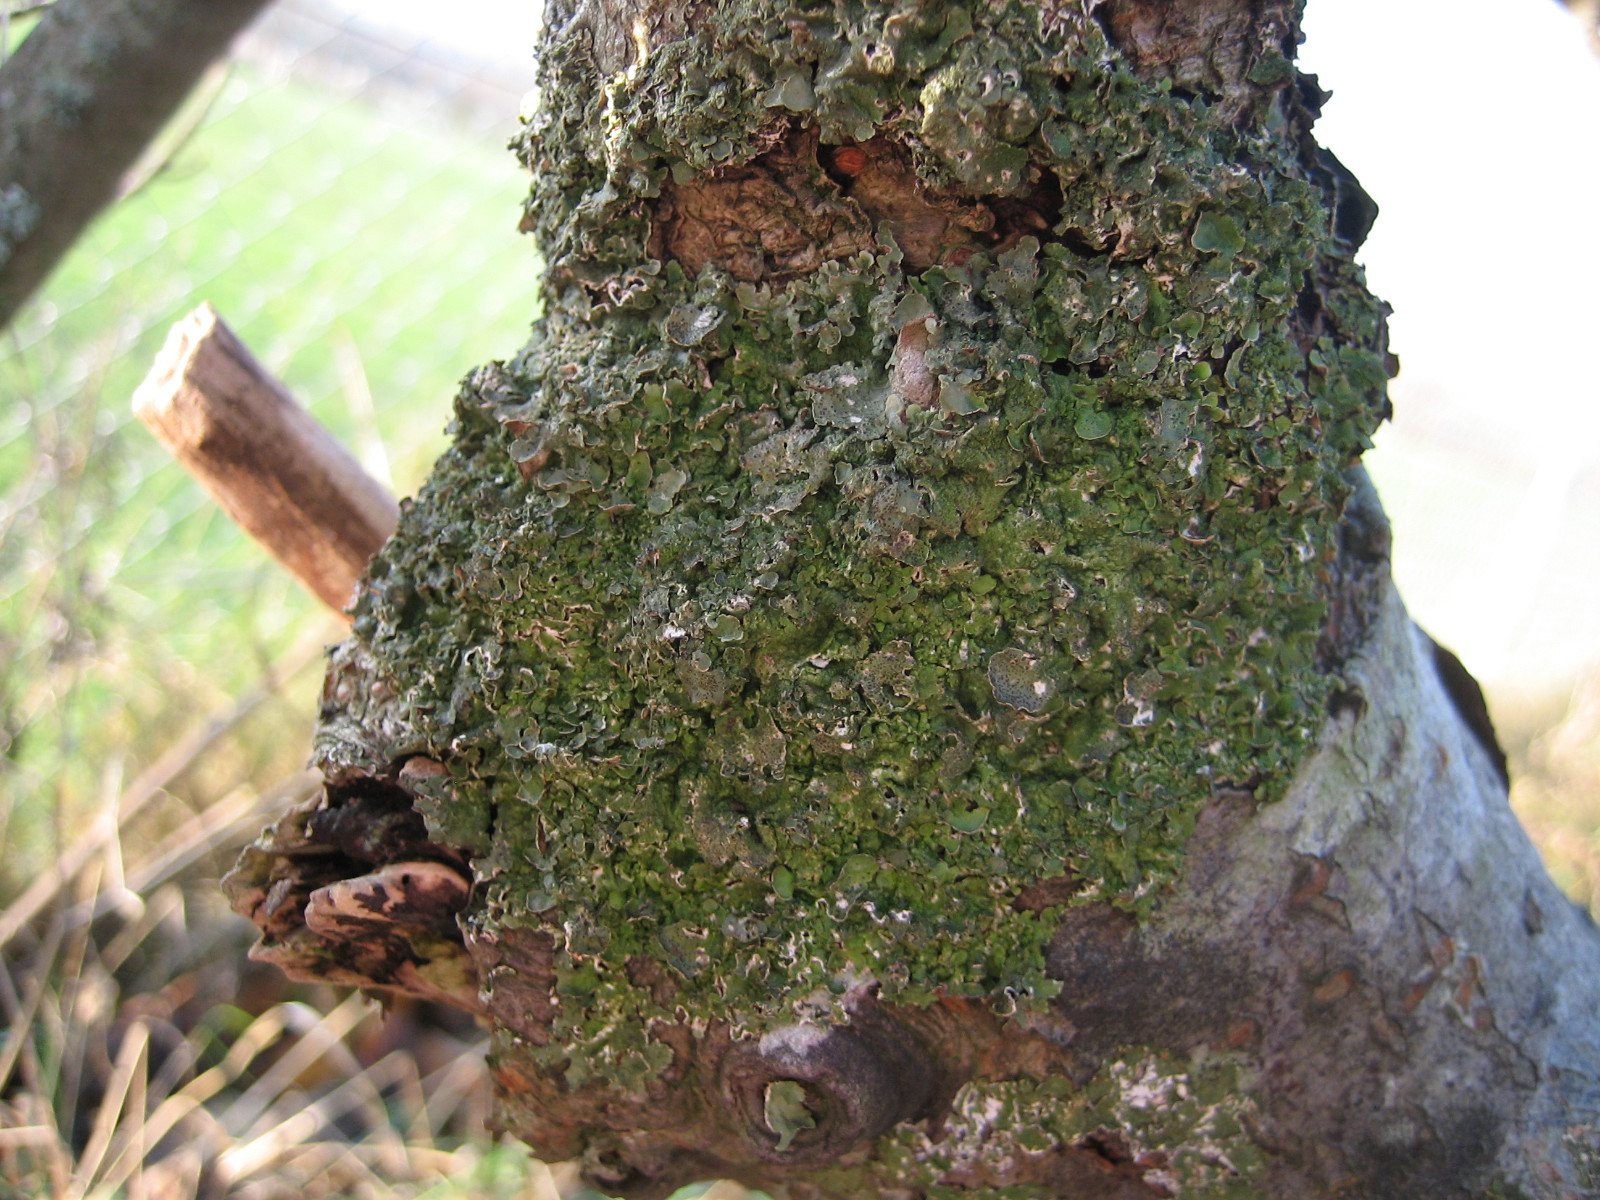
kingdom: Fungi
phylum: Ascomycota
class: Lecanoromycetes
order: Lecanorales
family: Parmeliaceae
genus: Pleurosticta
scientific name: Pleurosticta acetabulum
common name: stor skållav
